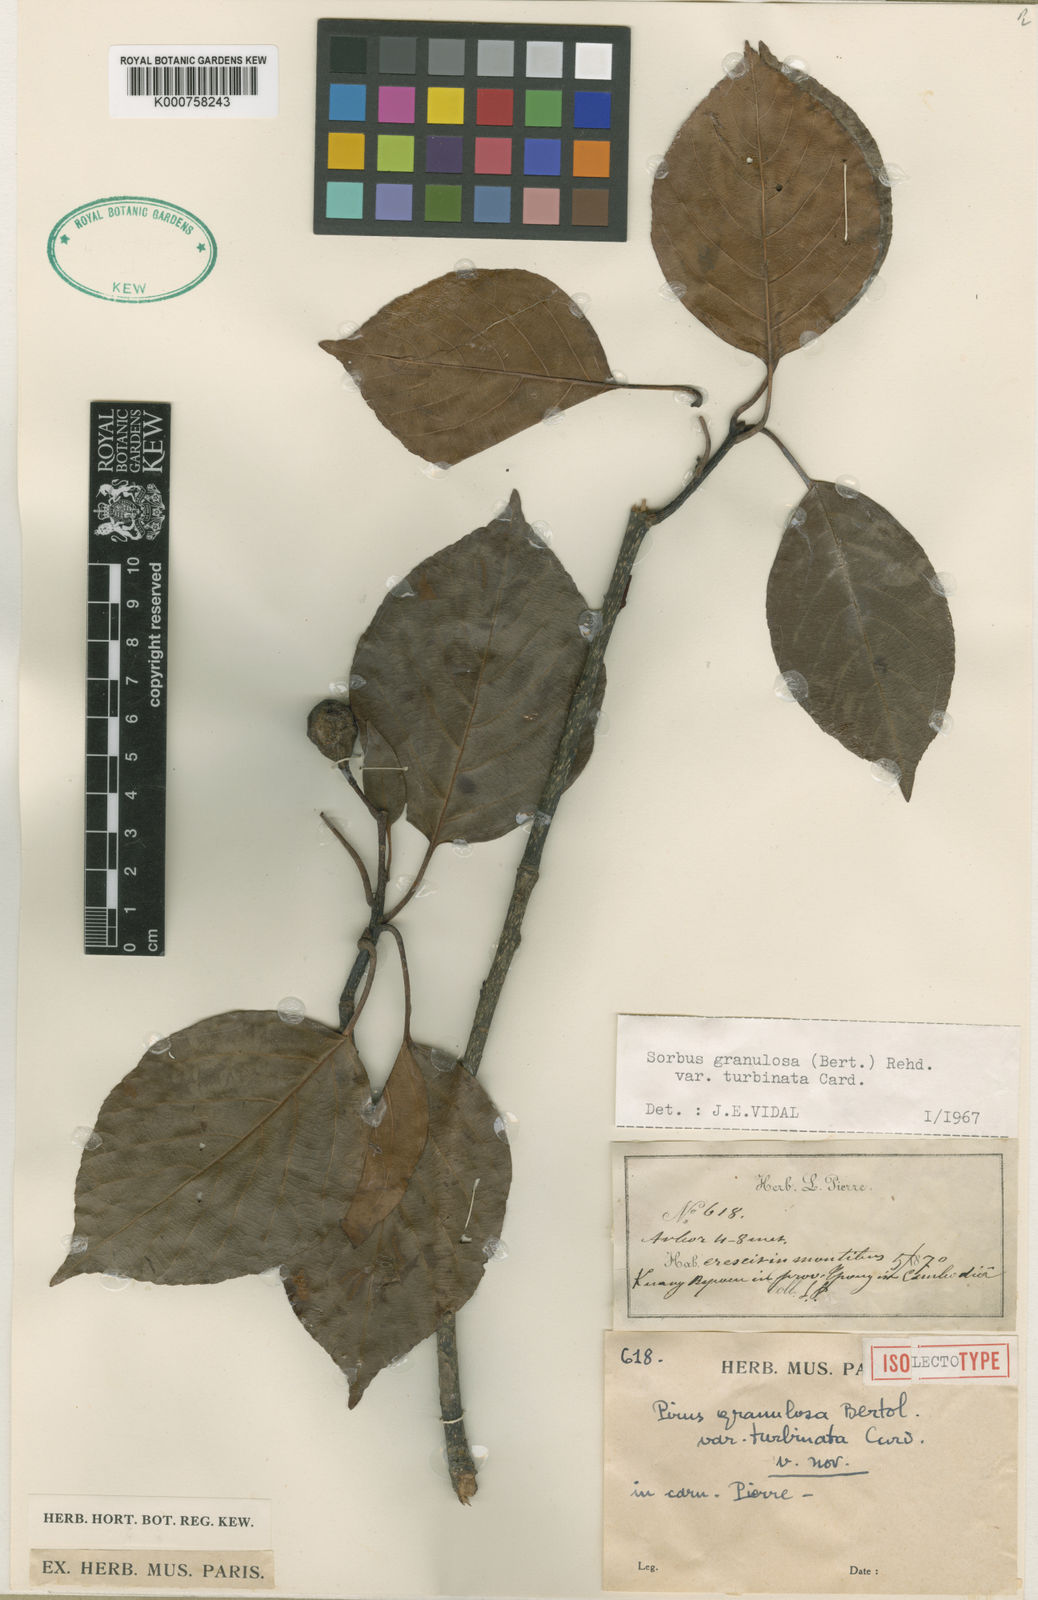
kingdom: Plantae
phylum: Tracheophyta
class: Magnoliopsida
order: Rosales
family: Rosaceae
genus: Sorbus
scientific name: Sorbus
